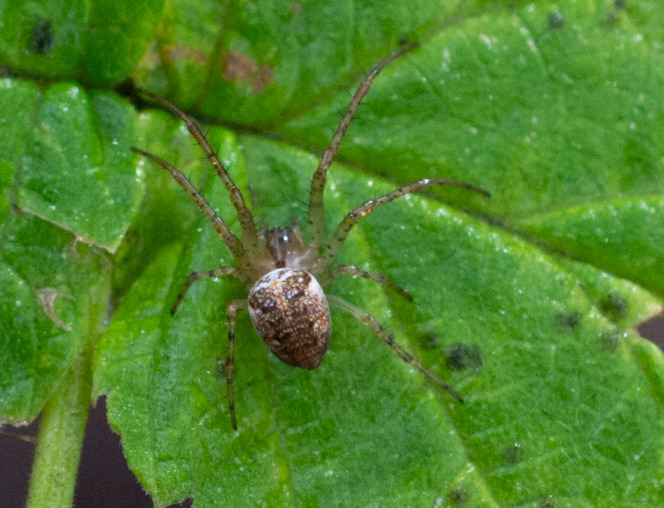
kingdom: Animalia
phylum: Arthropoda
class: Arachnida
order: Araneae
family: Tetragnathidae
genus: Metellina
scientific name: Metellina
